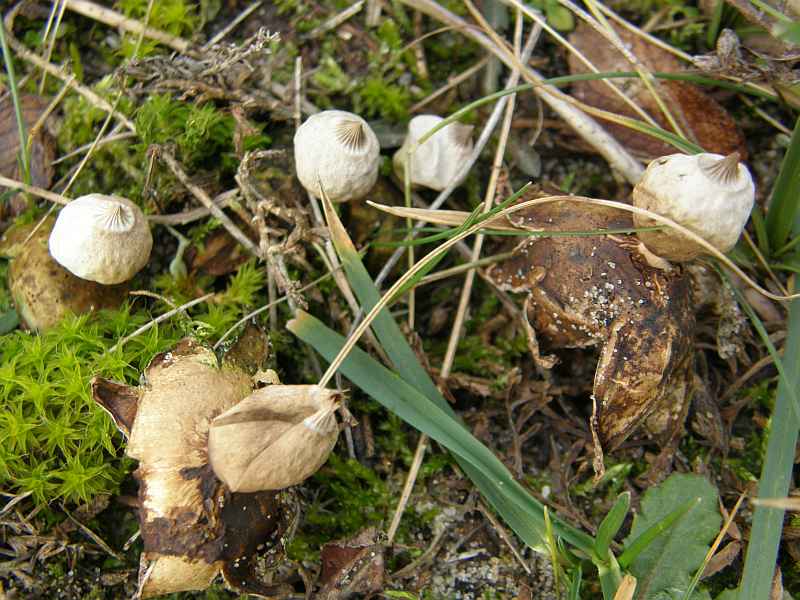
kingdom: Fungi
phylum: Basidiomycota
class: Agaricomycetes
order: Geastrales
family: Geastraceae
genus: Geastrum
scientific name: Geastrum striatum
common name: dværg-stjernebold
